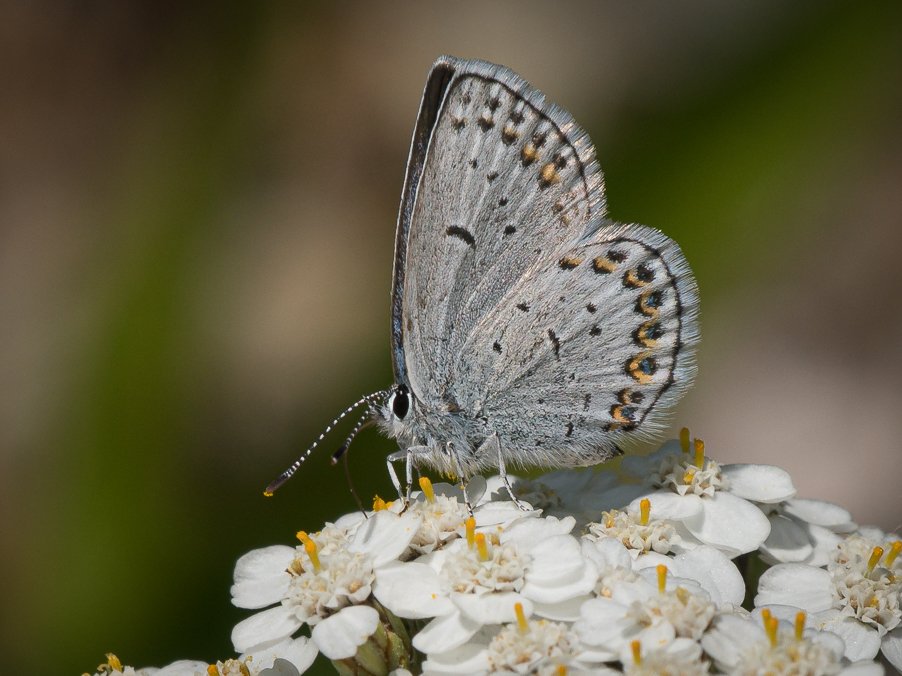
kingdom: Animalia
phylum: Arthropoda
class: Insecta
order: Lepidoptera
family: Lycaenidae
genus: Lycaeides
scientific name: Lycaeides idas
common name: Northern Blue
